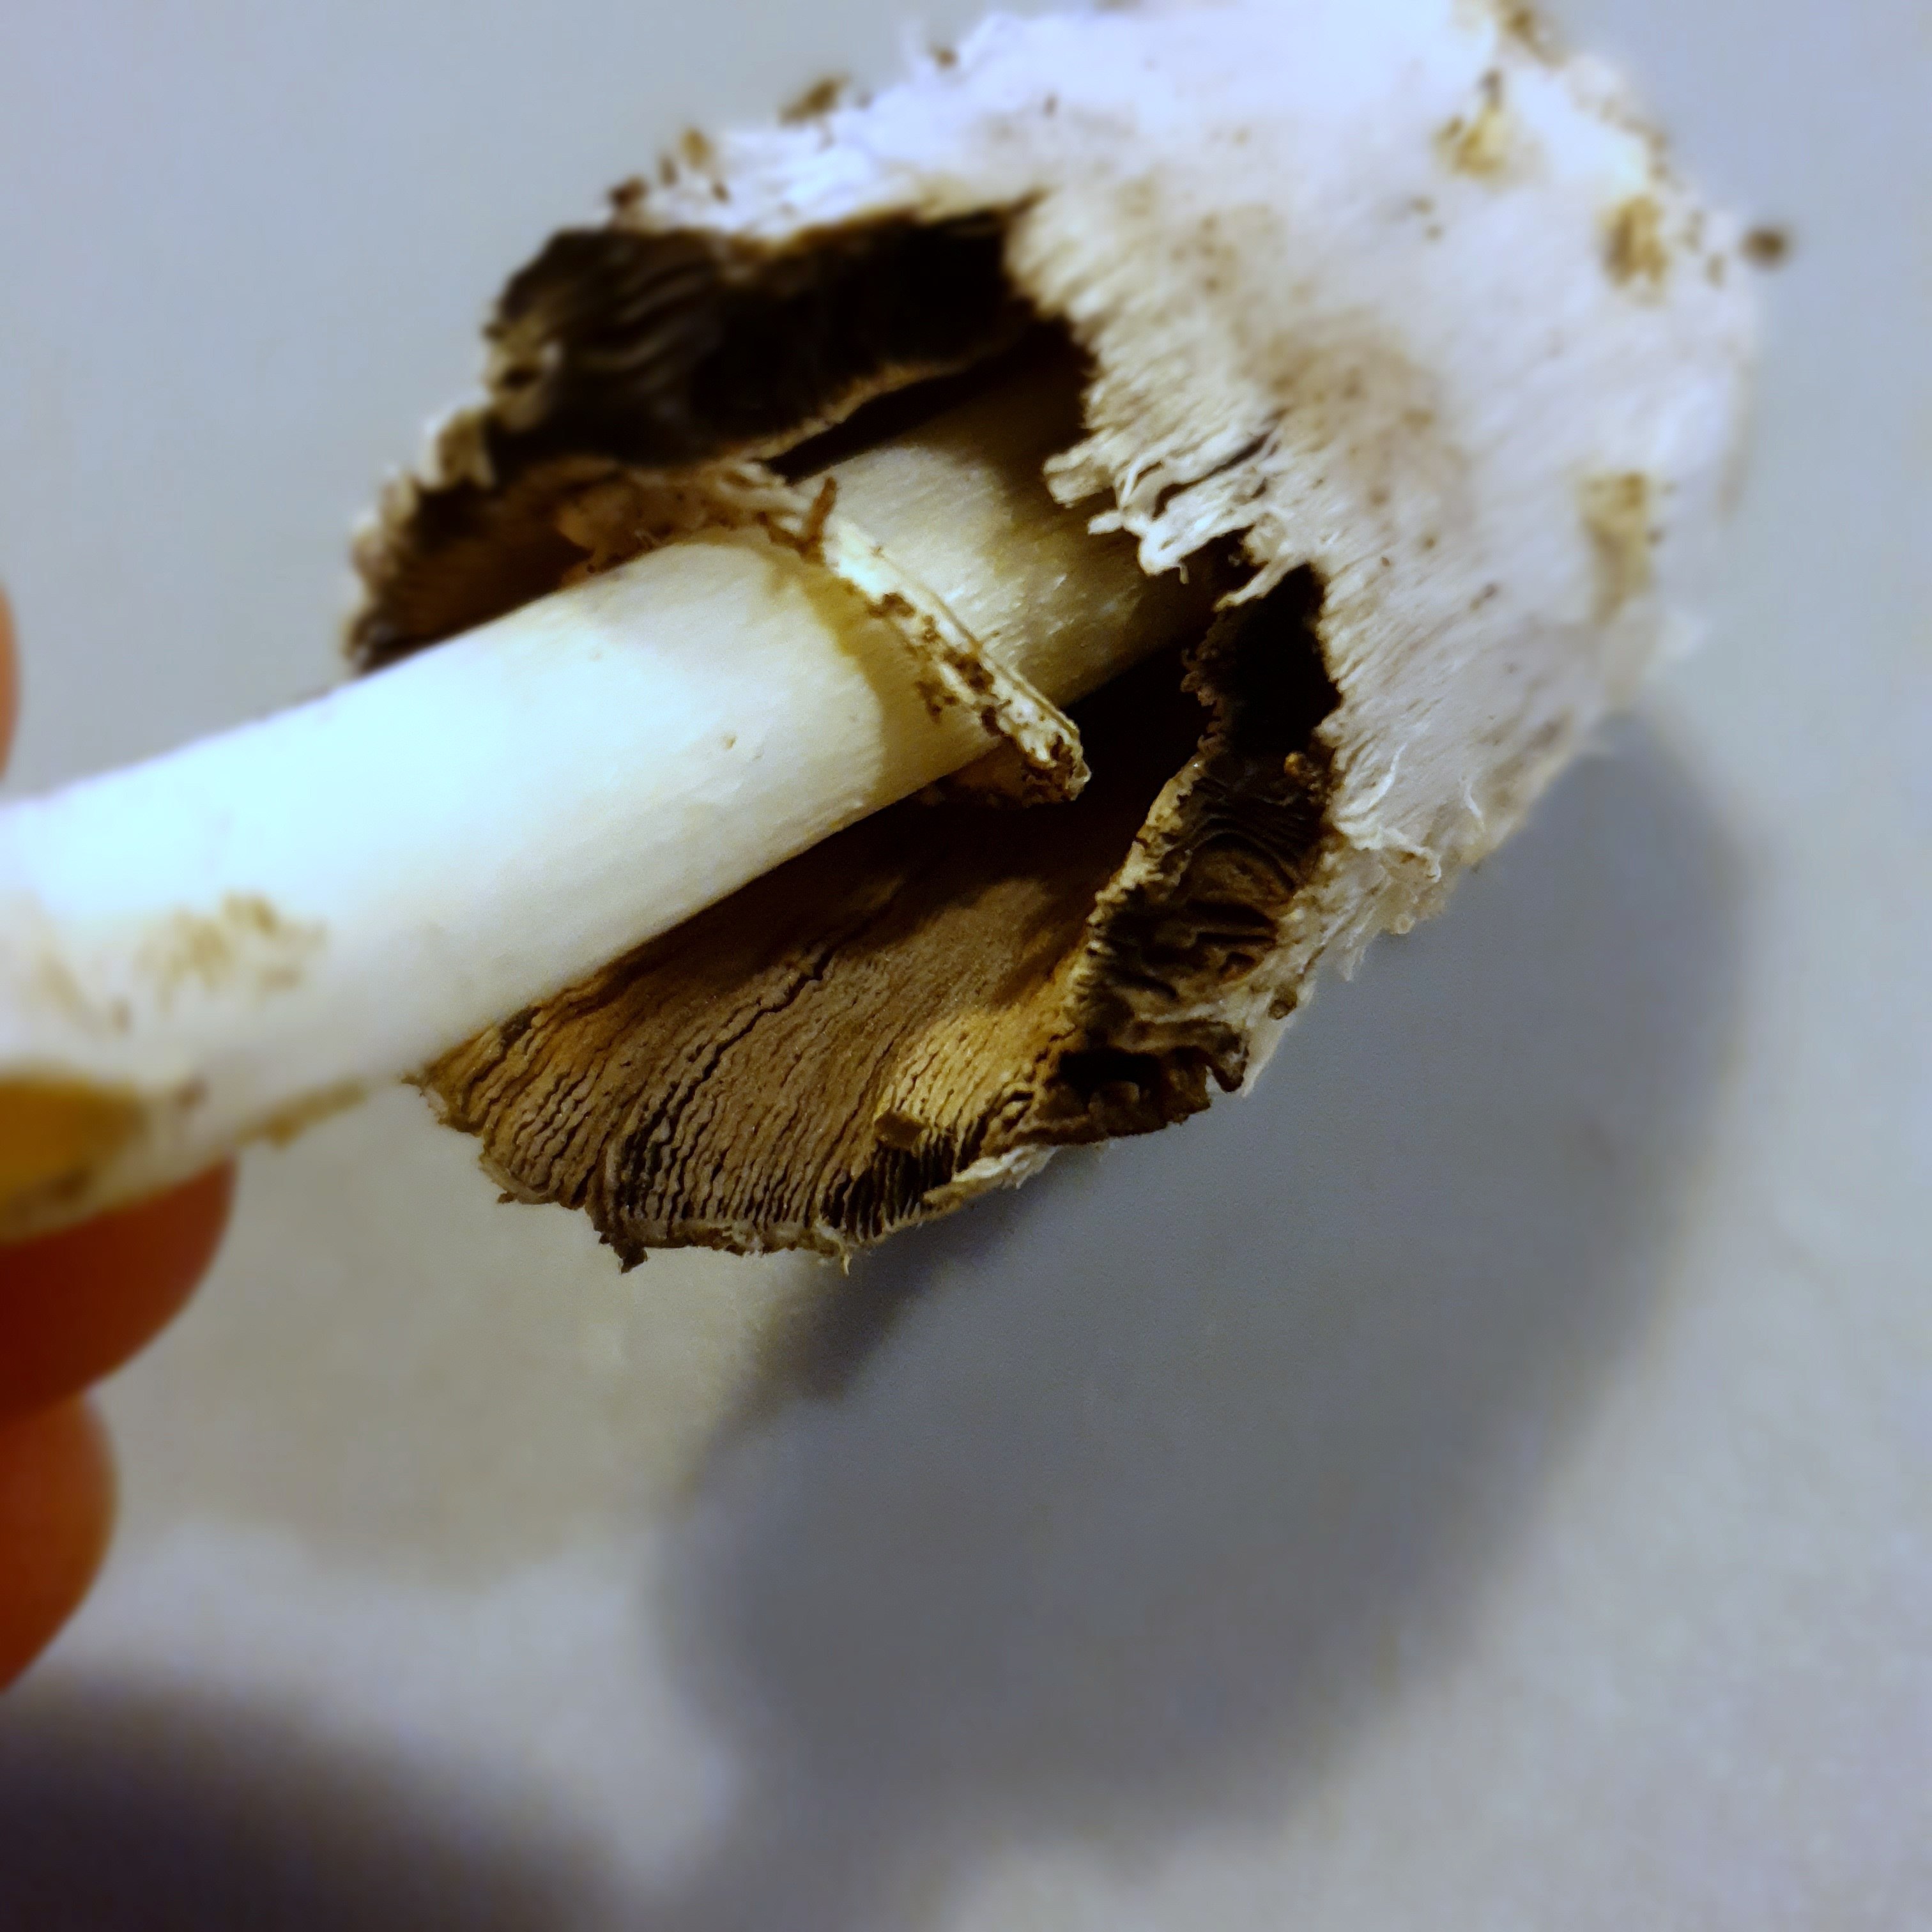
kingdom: Fungi
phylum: Basidiomycota
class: Agaricomycetes
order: Agaricales
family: Agaricaceae
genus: Coprinus
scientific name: Coprinus comatus
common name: stor parykhat
